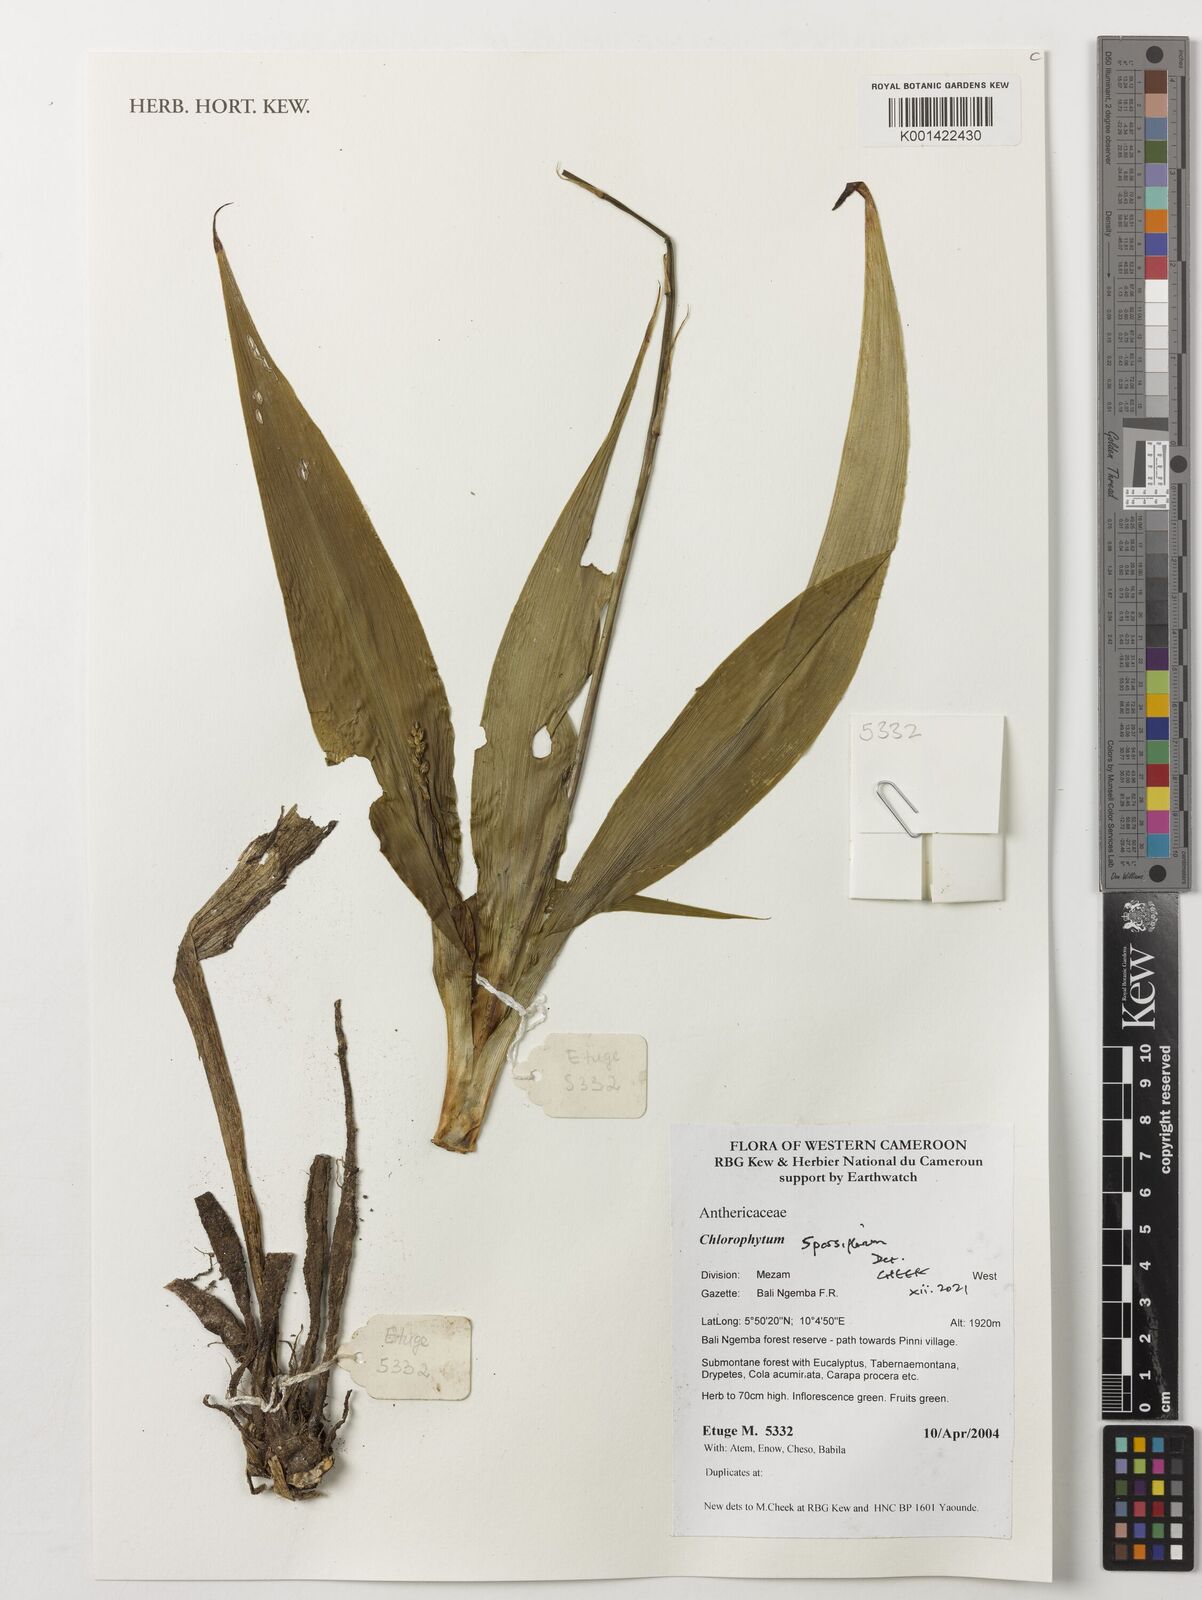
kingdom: Plantae
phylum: Tracheophyta
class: Liliopsida
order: Asparagales
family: Asparagaceae
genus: Chlorophytum
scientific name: Chlorophytum sparsiflorum
